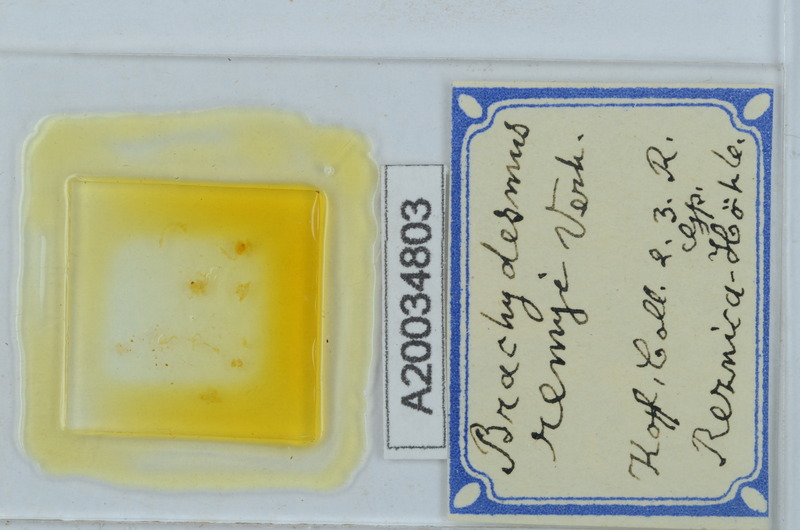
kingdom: Animalia
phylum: Arthropoda
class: Diplopoda
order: Polydesmida
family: Polydesmidae
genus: Brachydesmus
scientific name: Brachydesmus
